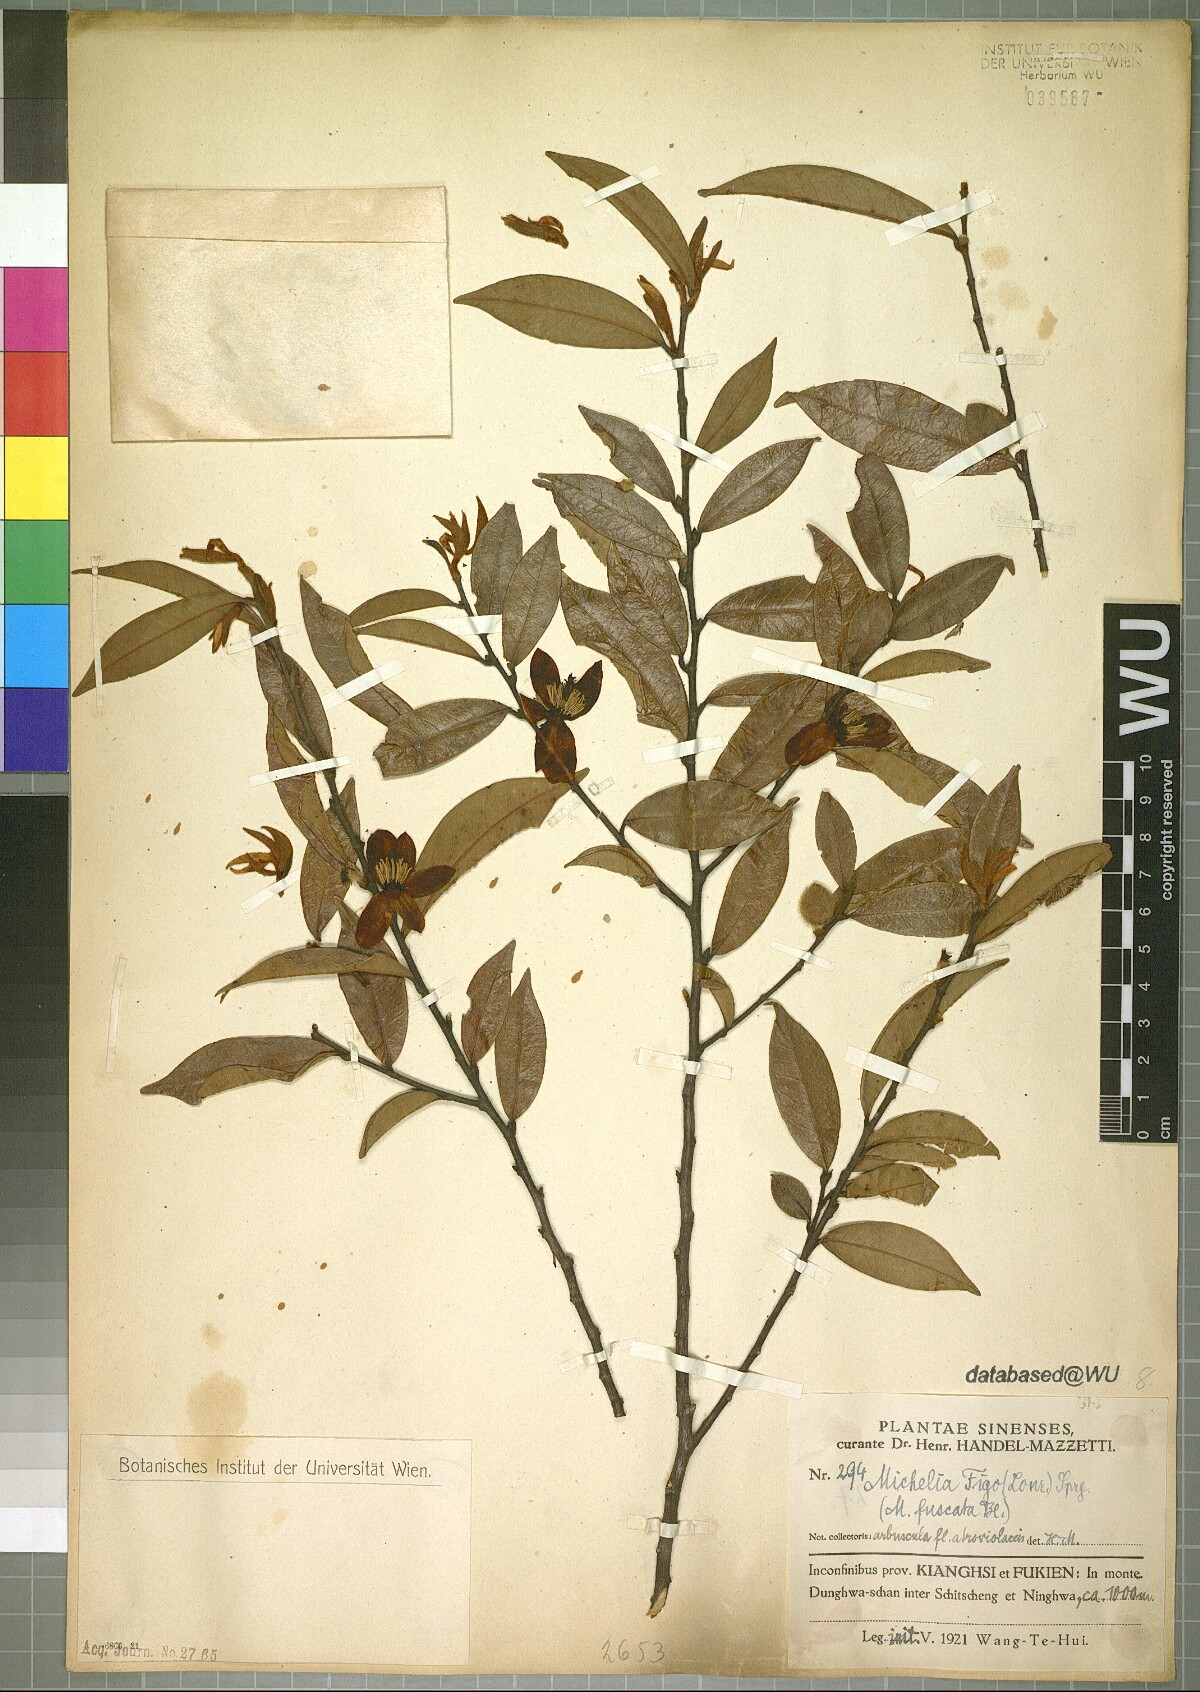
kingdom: Plantae
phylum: Tracheophyta
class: Magnoliopsida
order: Magnoliales
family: Magnoliaceae
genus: Magnolia
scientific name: Magnolia figo
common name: Banana shrub
